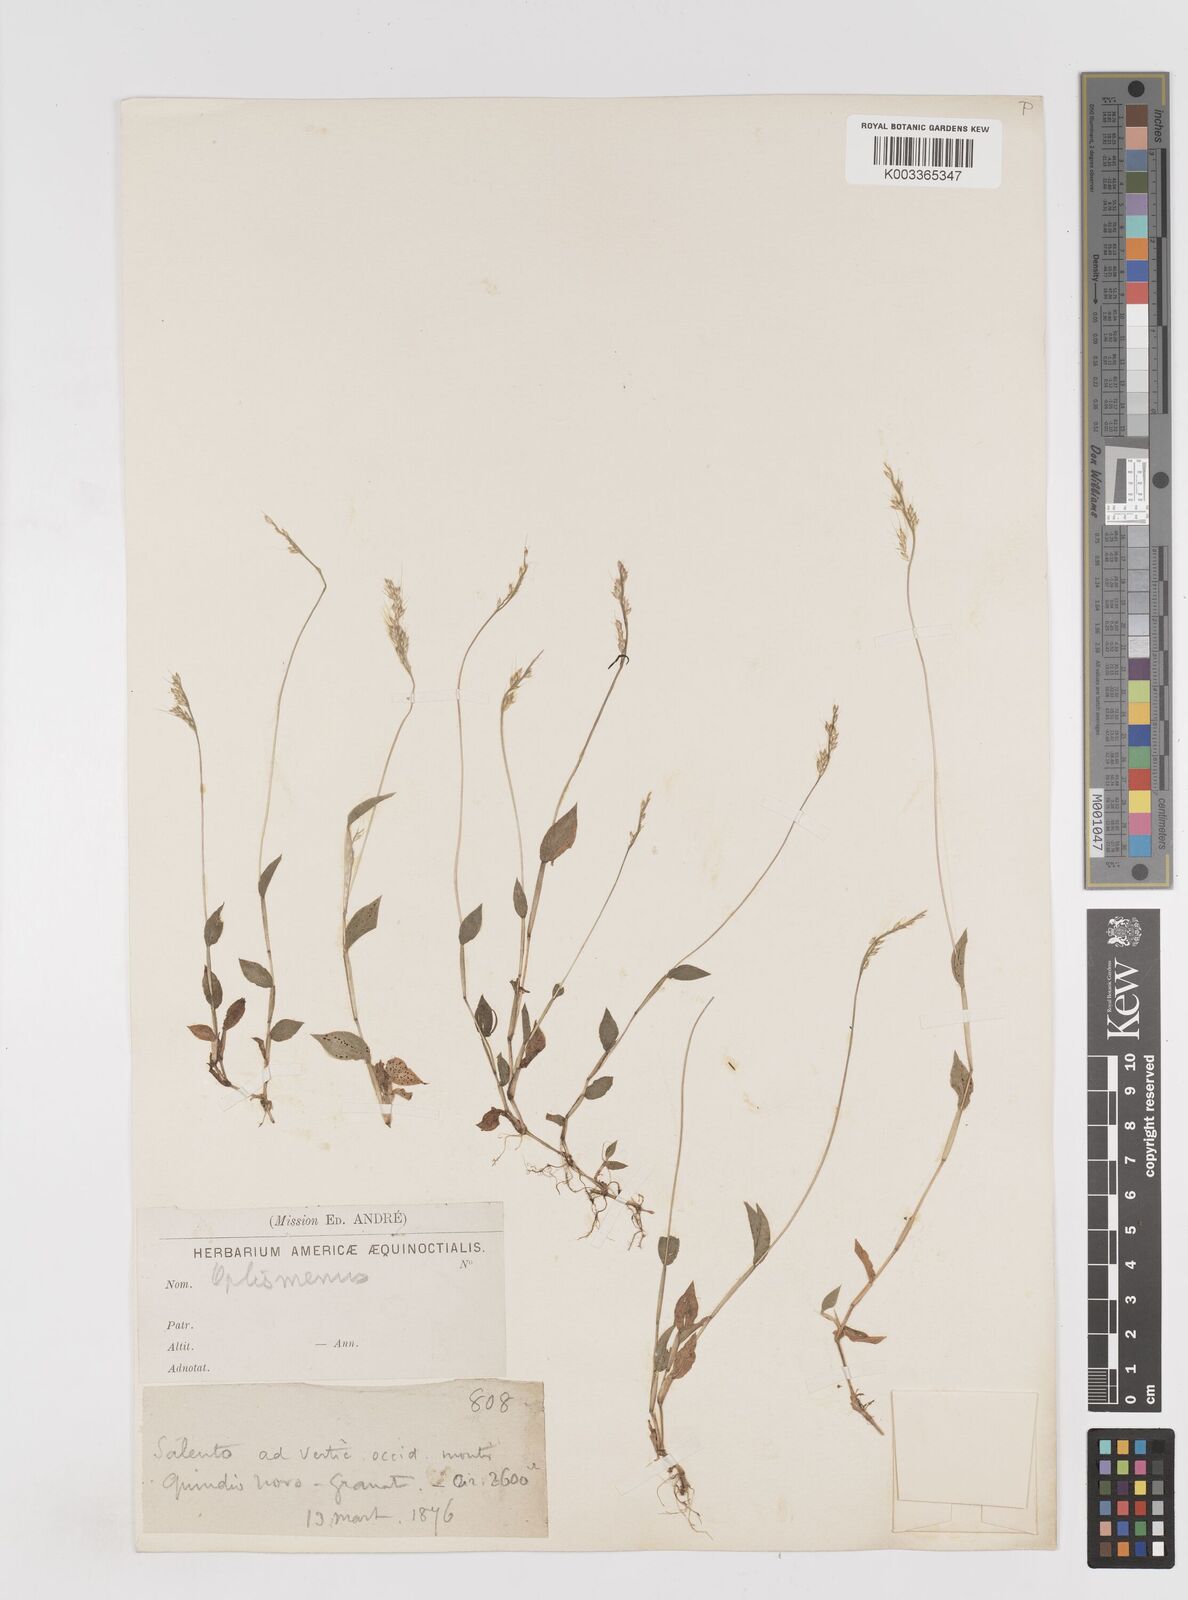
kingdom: Plantae
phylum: Tracheophyta
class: Liliopsida
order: Poales
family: Poaceae
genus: Oplismenus
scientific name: Oplismenus burmanni
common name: Burmann's basketgrass
